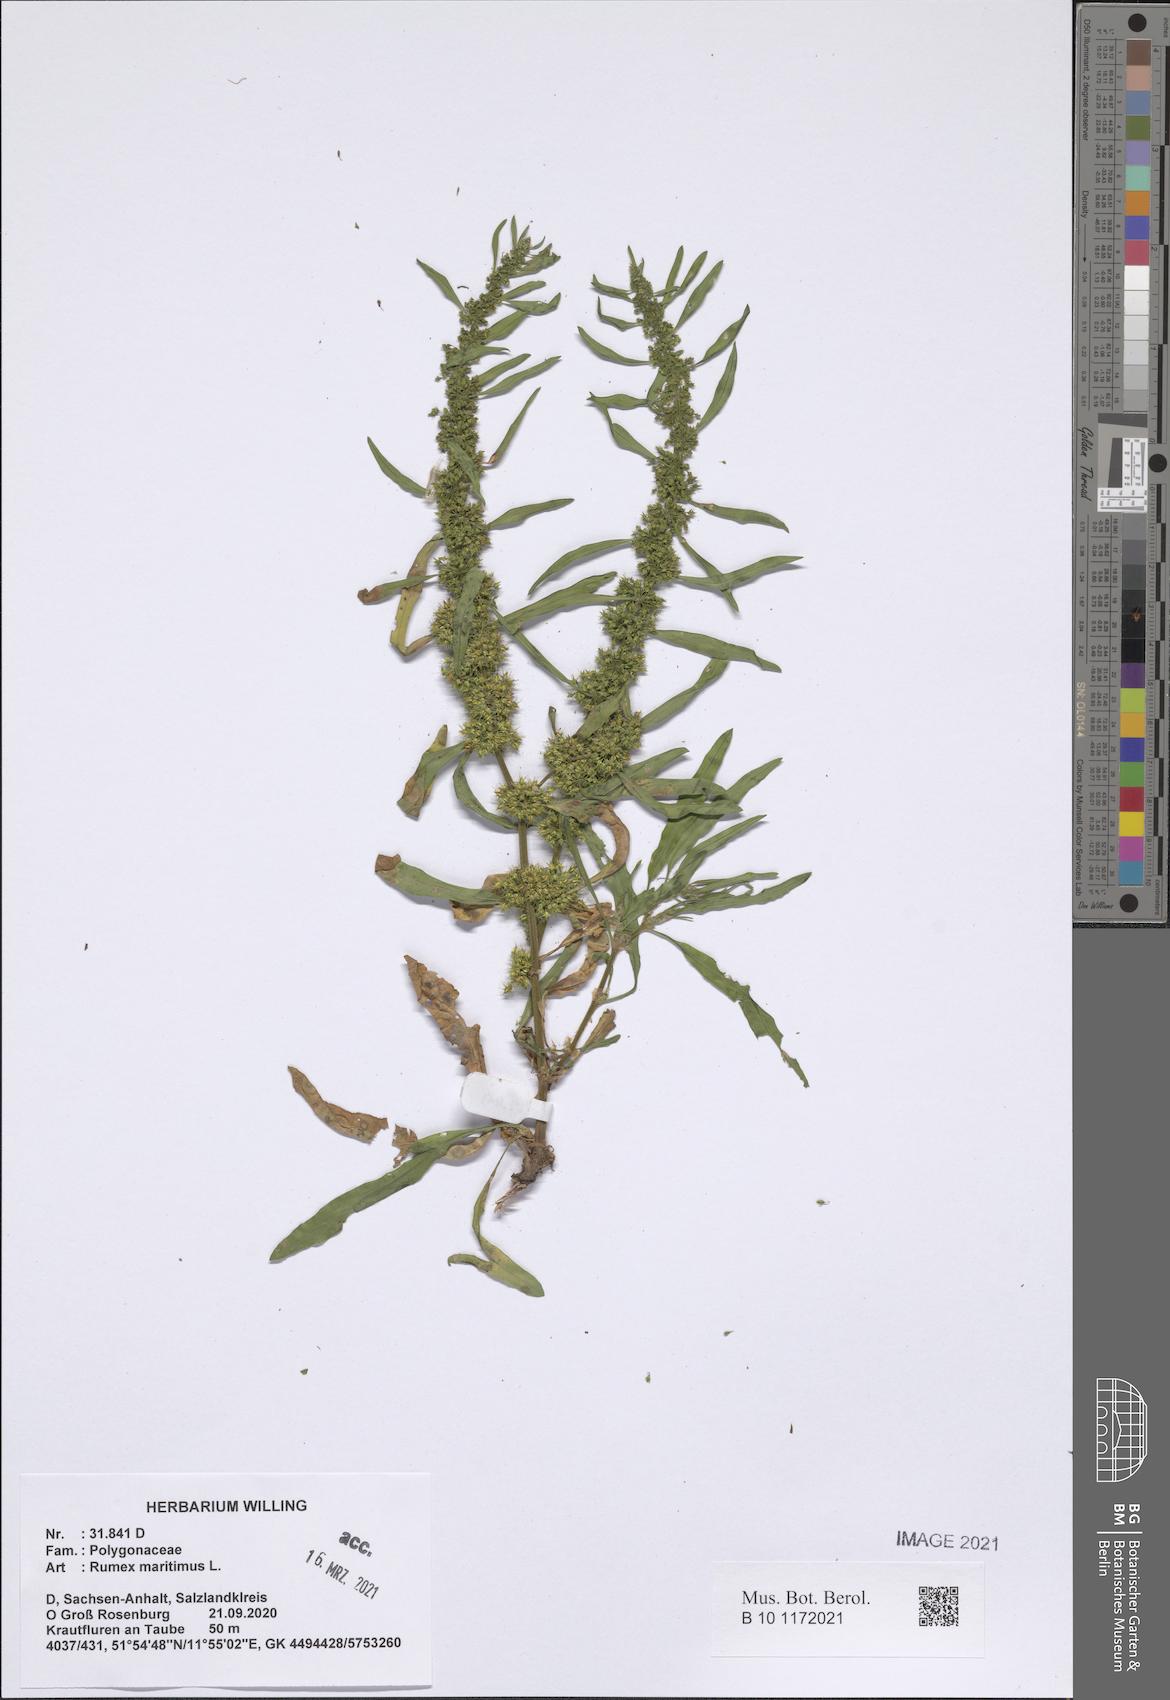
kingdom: Plantae
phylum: Tracheophyta
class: Magnoliopsida
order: Caryophyllales
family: Polygonaceae
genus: Rumex
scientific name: Rumex maritimus
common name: Golden dock
